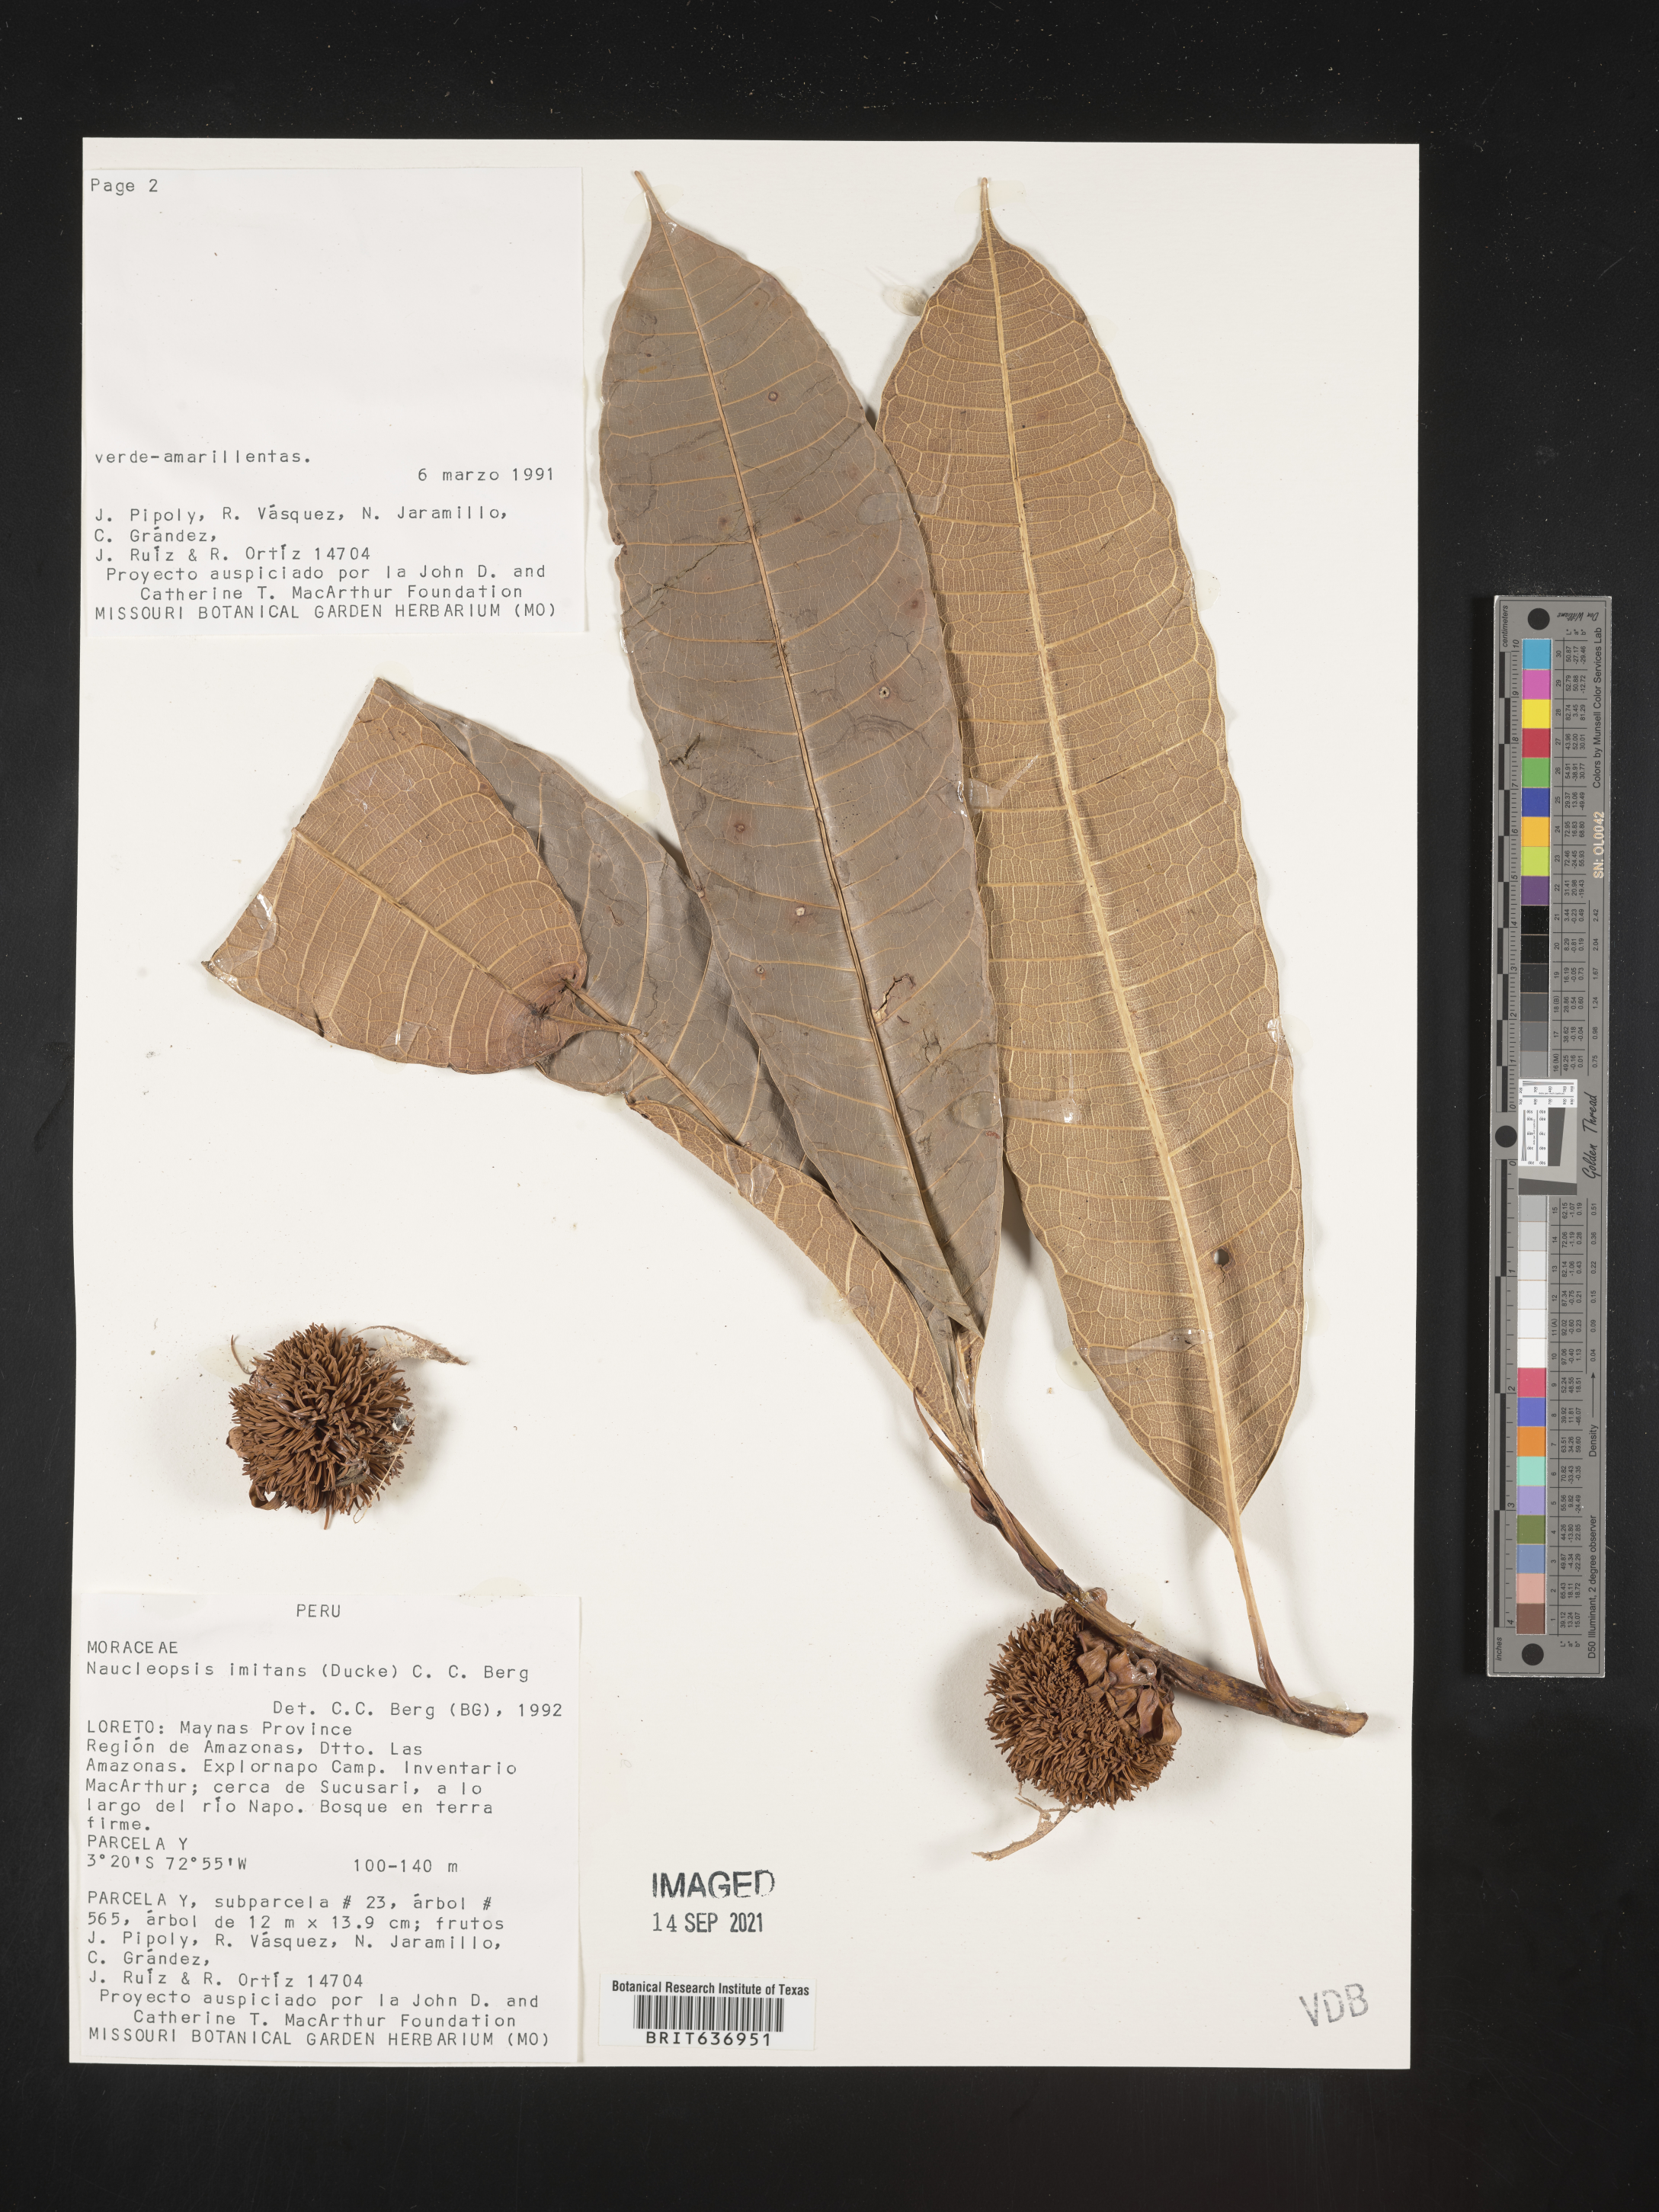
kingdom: Plantae
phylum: Tracheophyta
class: Magnoliopsida
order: Rosales
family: Moraceae
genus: Naucleopsis
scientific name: Naucleopsis
